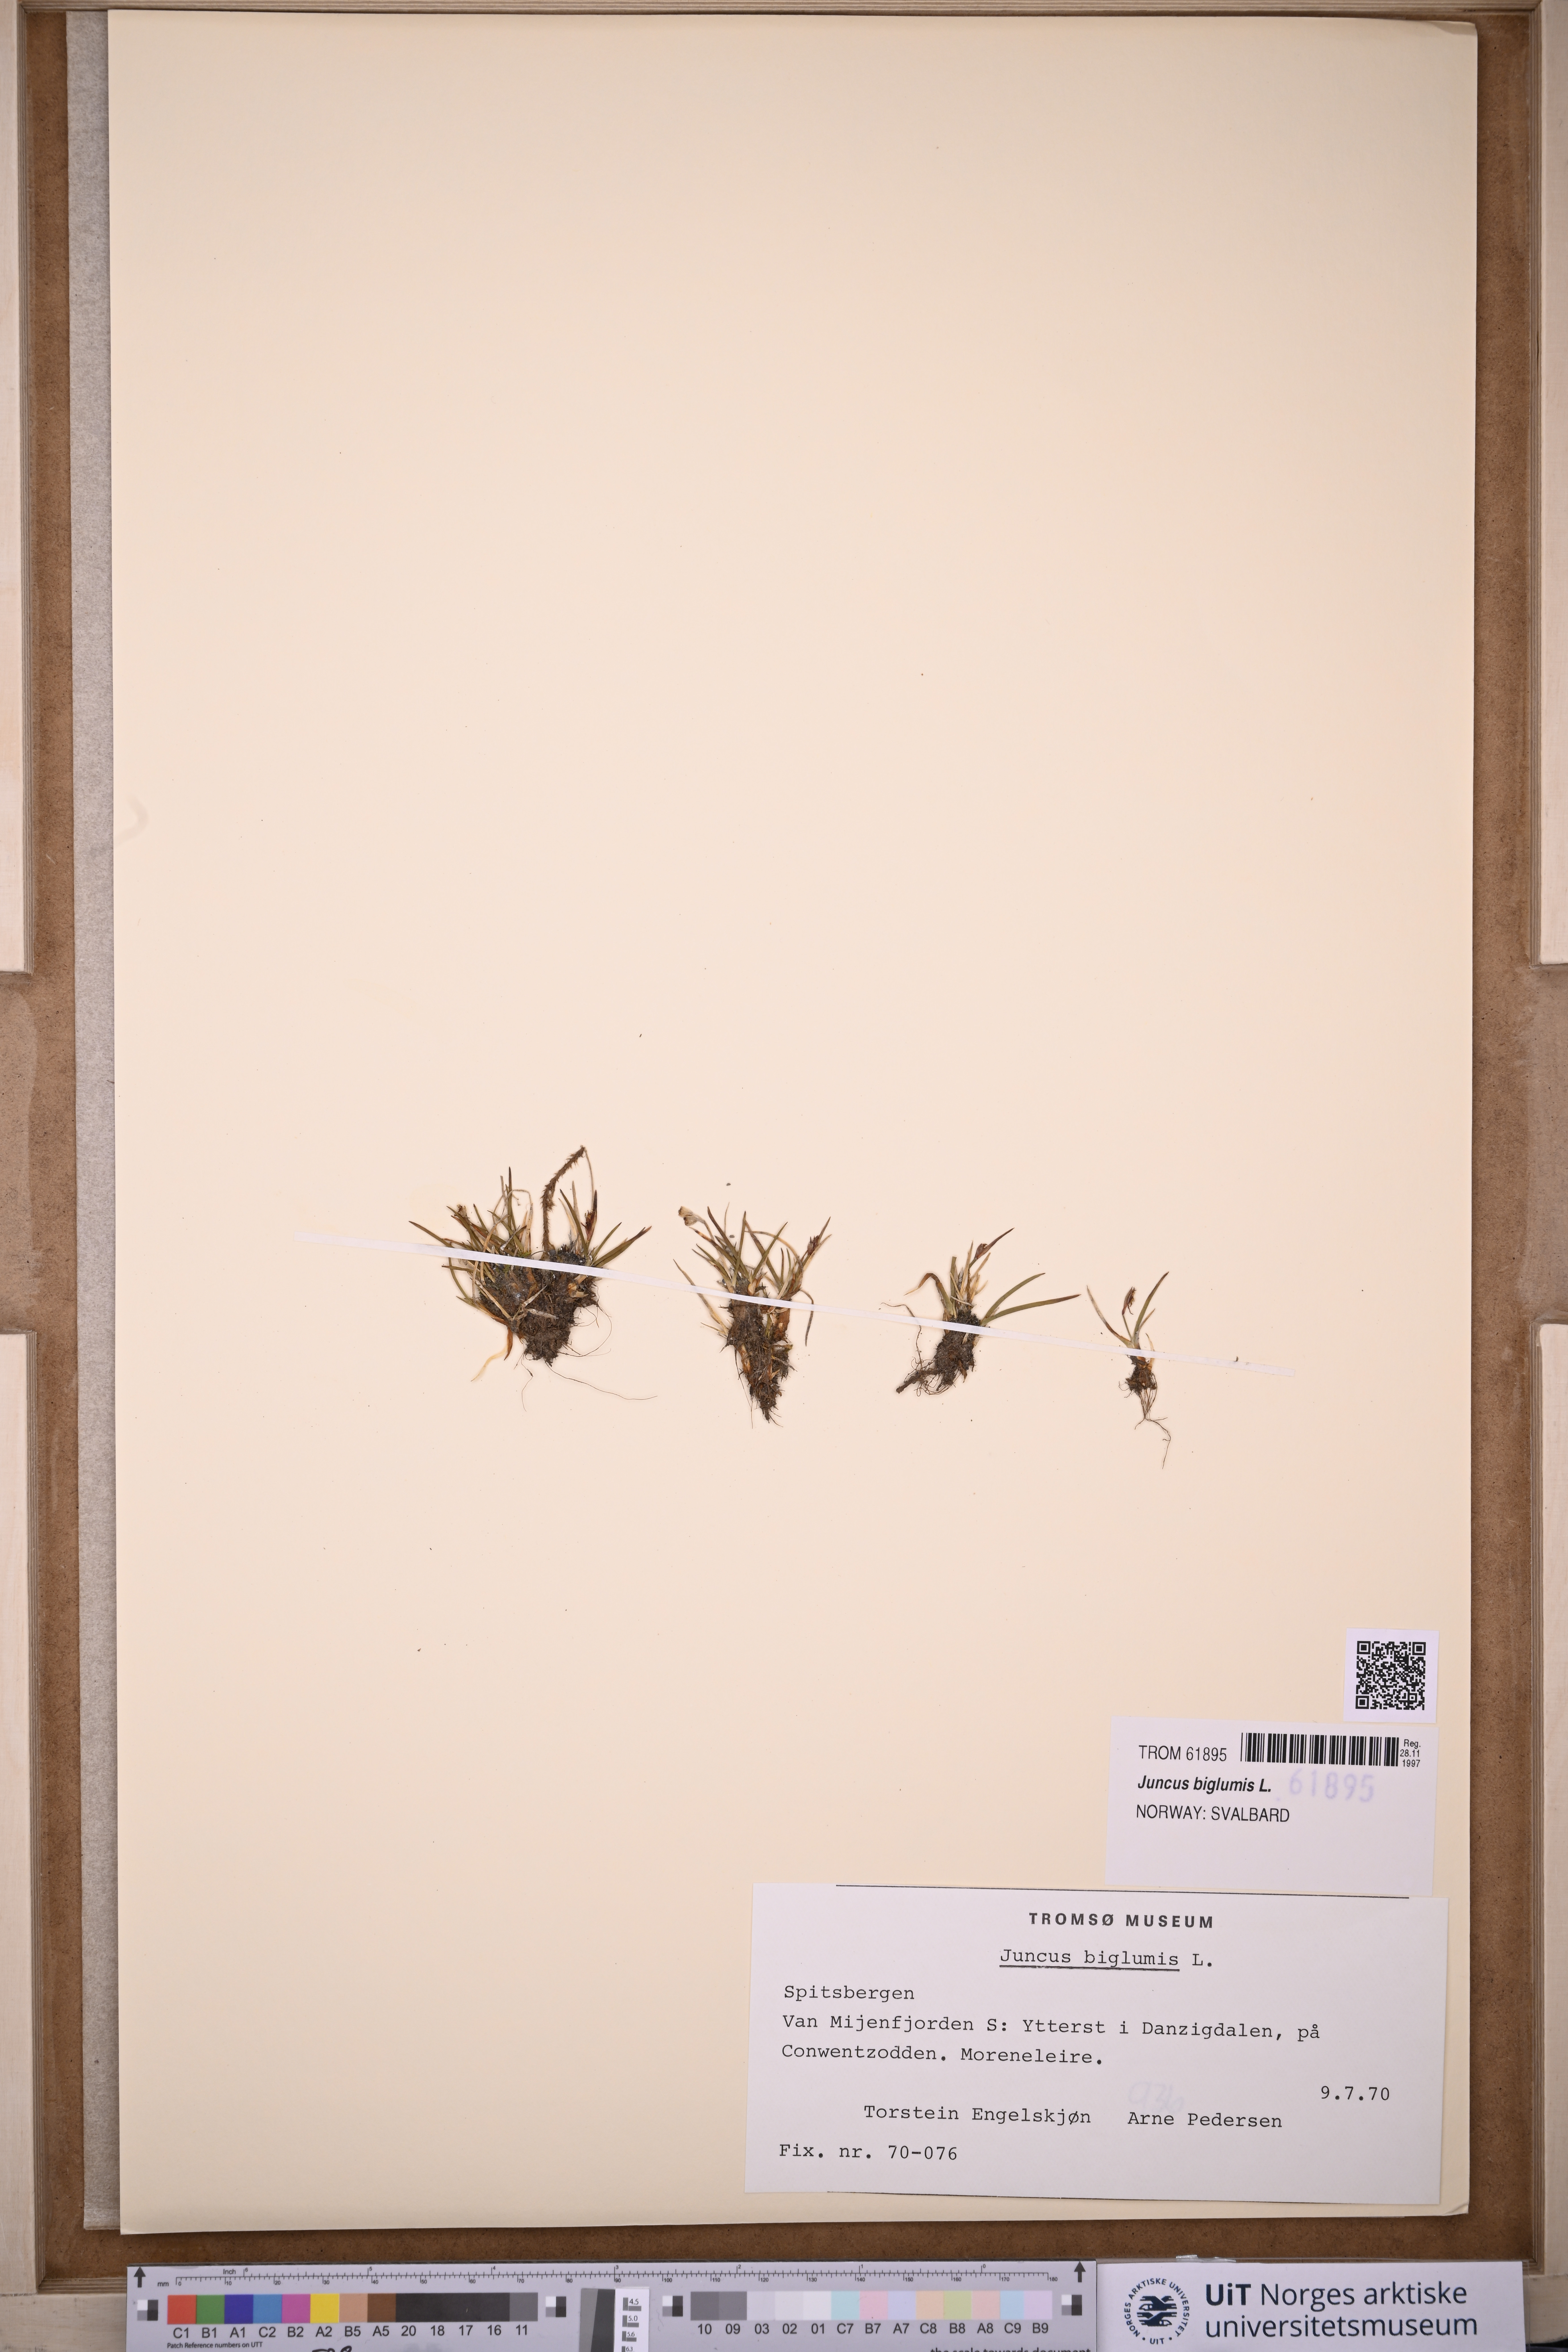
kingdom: Plantae
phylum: Tracheophyta
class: Liliopsida
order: Poales
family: Juncaceae
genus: Juncus
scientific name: Juncus biglumis
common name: Two-flowered rush
